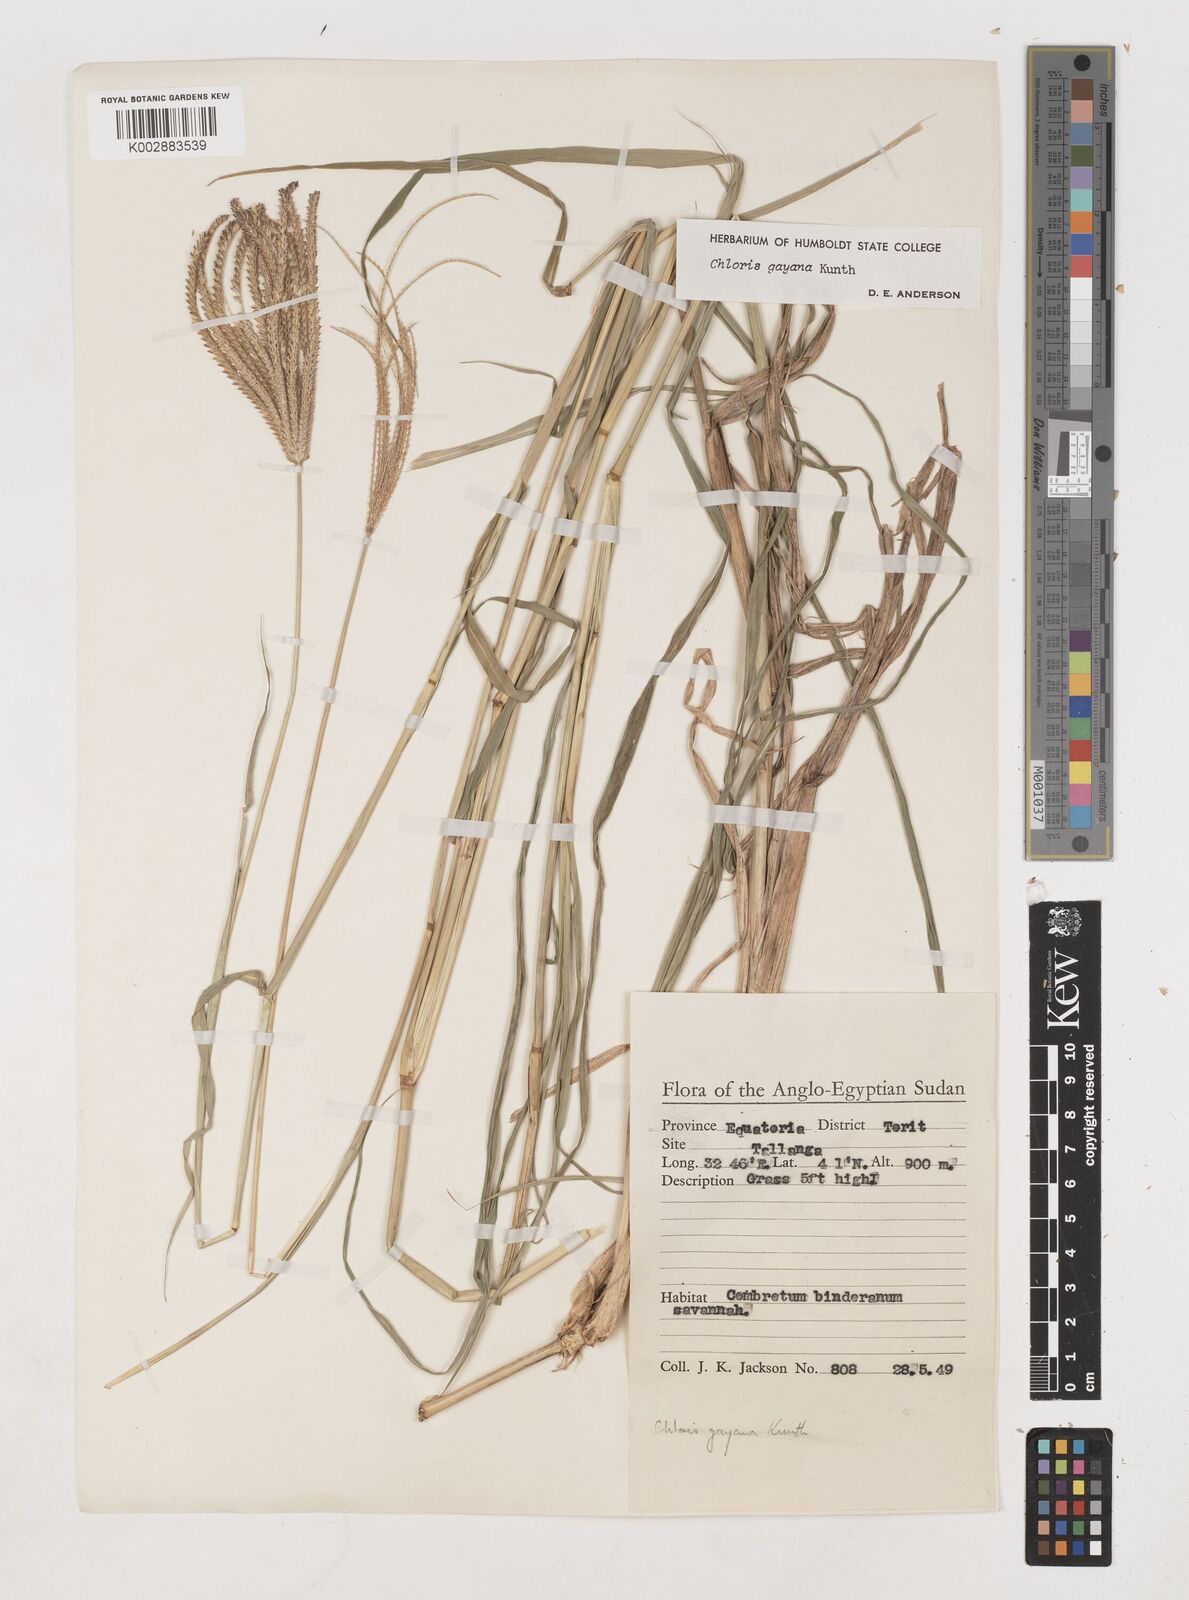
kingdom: Plantae
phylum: Tracheophyta
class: Liliopsida
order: Poales
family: Poaceae
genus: Chloris
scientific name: Chloris gayana
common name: Rhodes grass
